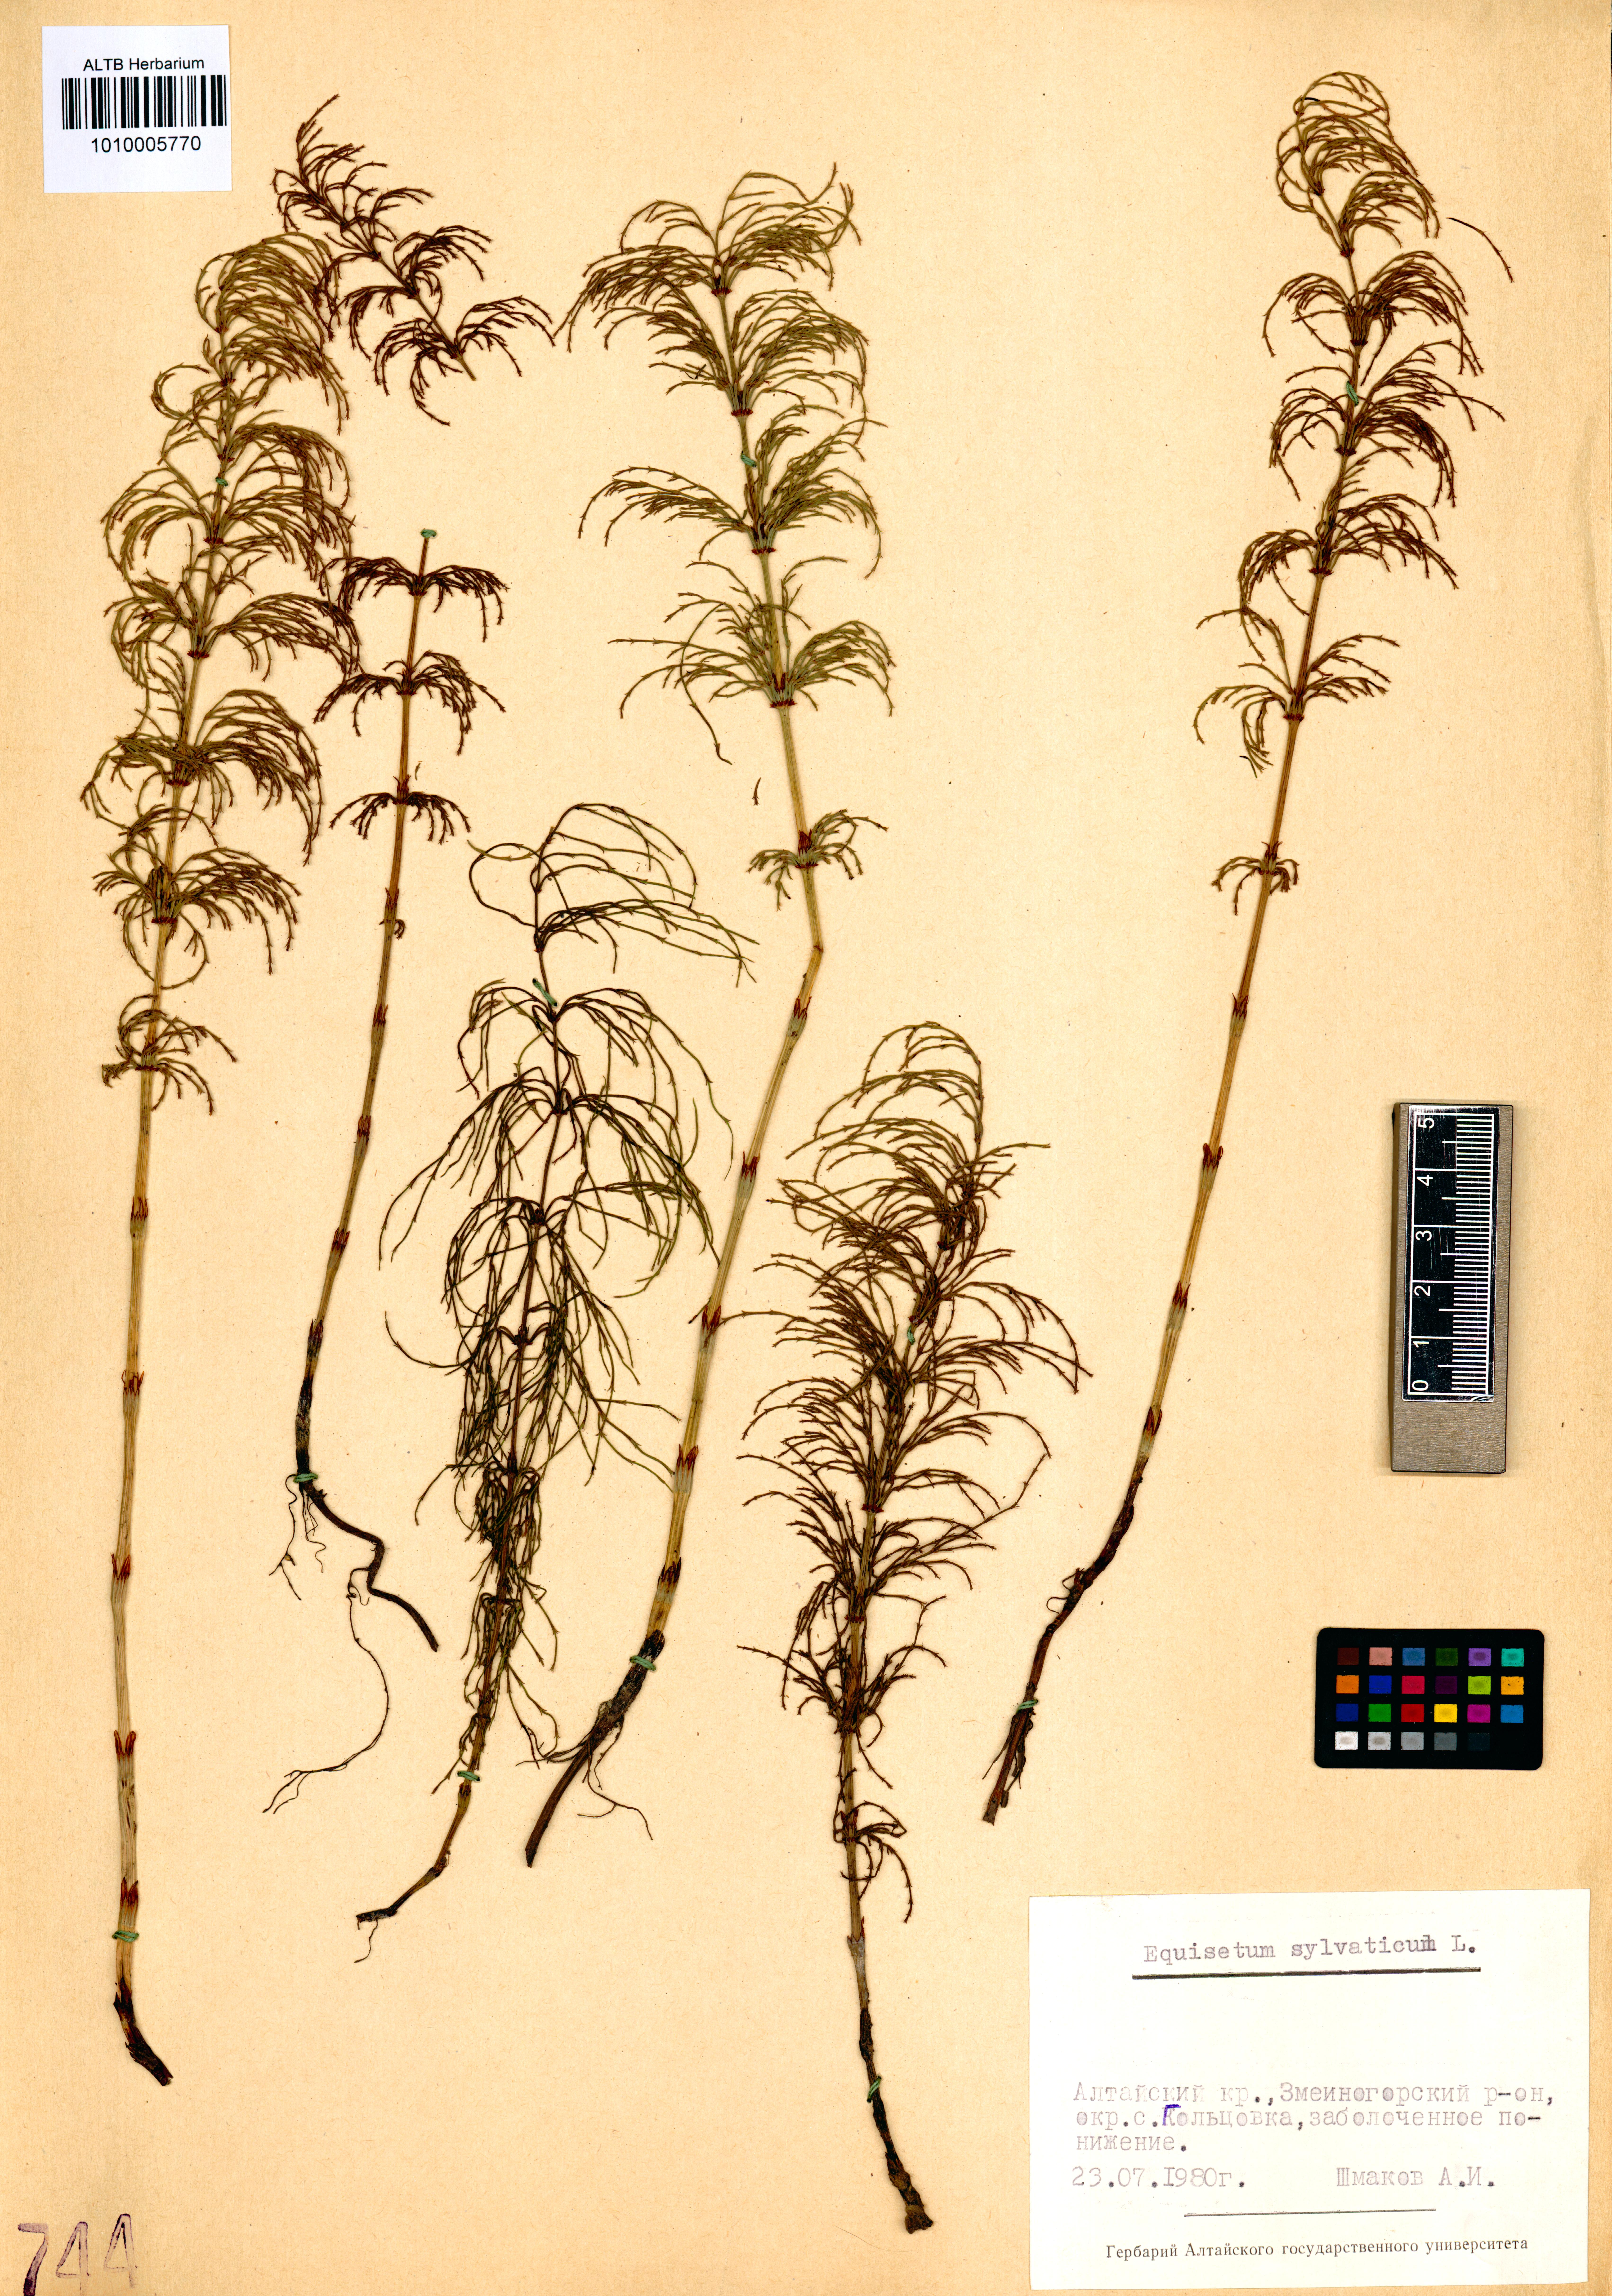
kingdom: Plantae
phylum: Tracheophyta
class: Polypodiopsida
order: Equisetales
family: Equisetaceae
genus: Equisetum
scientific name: Equisetum sylvaticum
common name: Wood horsetail
